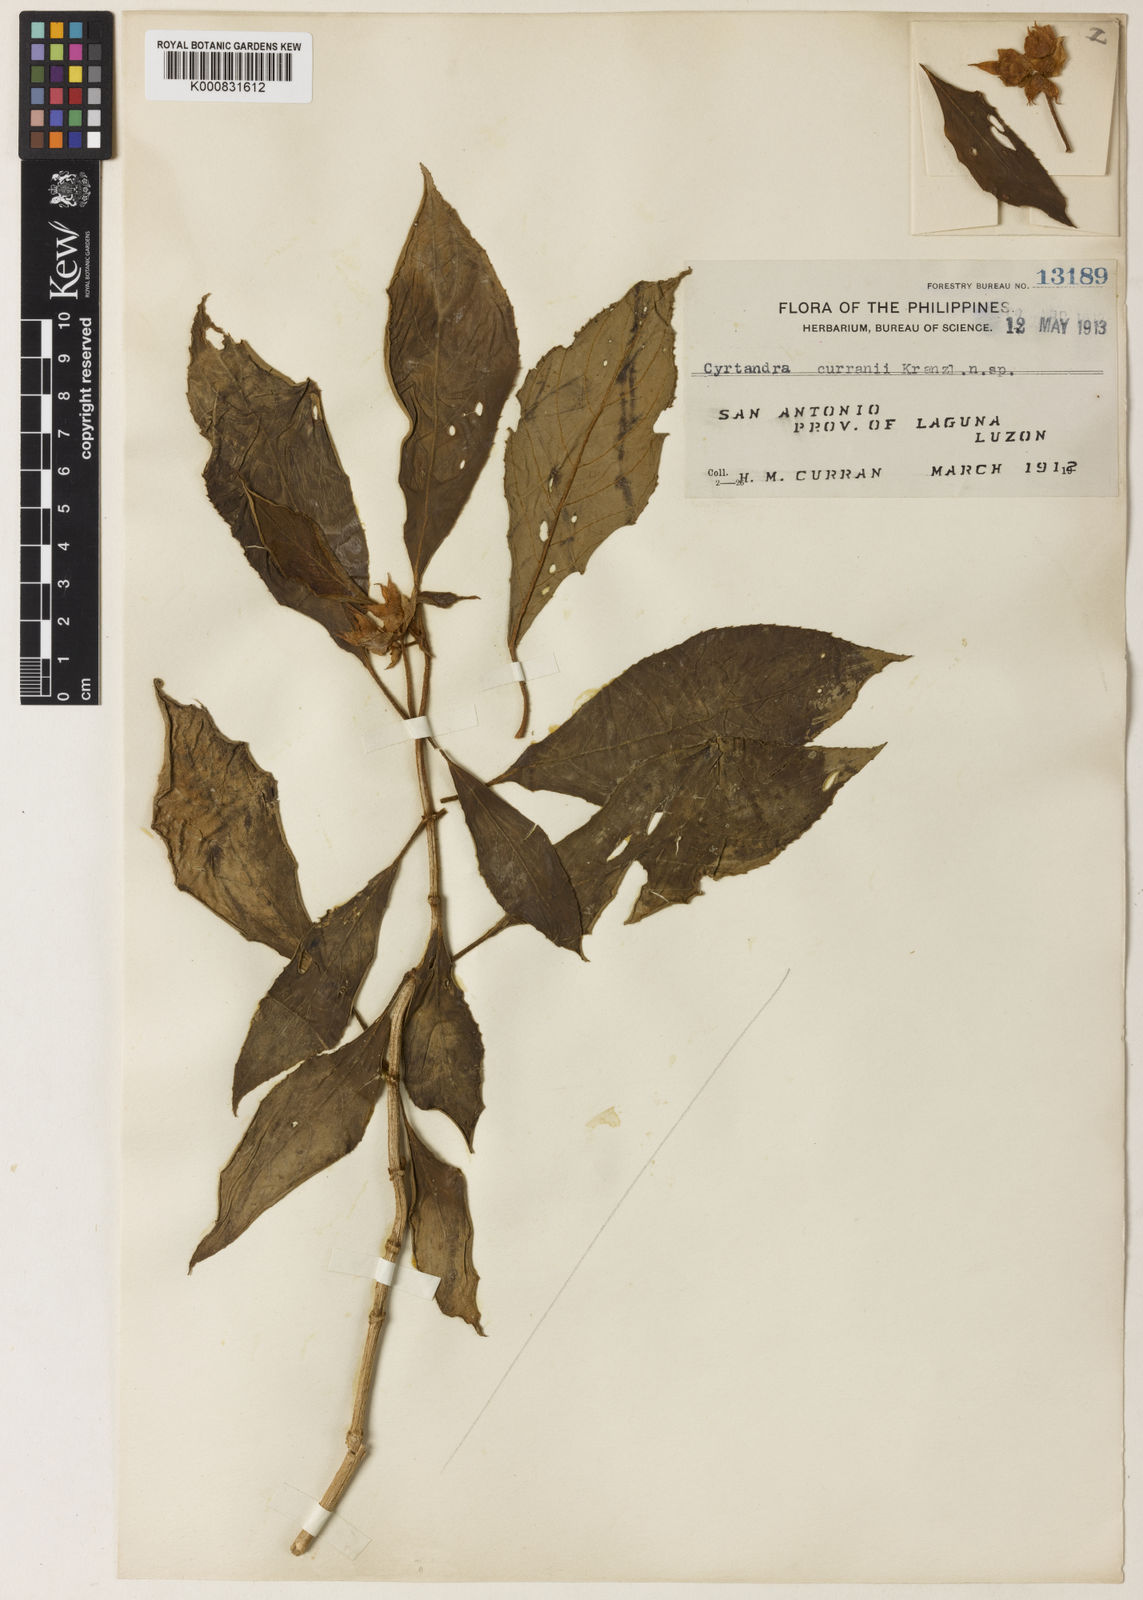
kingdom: Plantae
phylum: Tracheophyta
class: Magnoliopsida
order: Lamiales
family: Gesneriaceae
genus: Cyrtandra
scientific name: Cyrtandra lobbii
